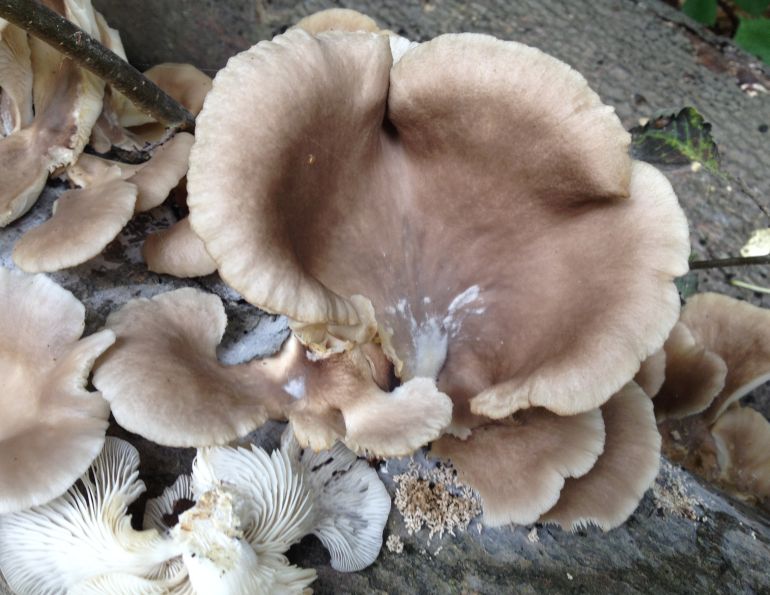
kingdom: Fungi
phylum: Basidiomycota
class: Agaricomycetes
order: Agaricales
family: Pleurotaceae
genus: Pleurotus
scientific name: Pleurotus ostreatus
